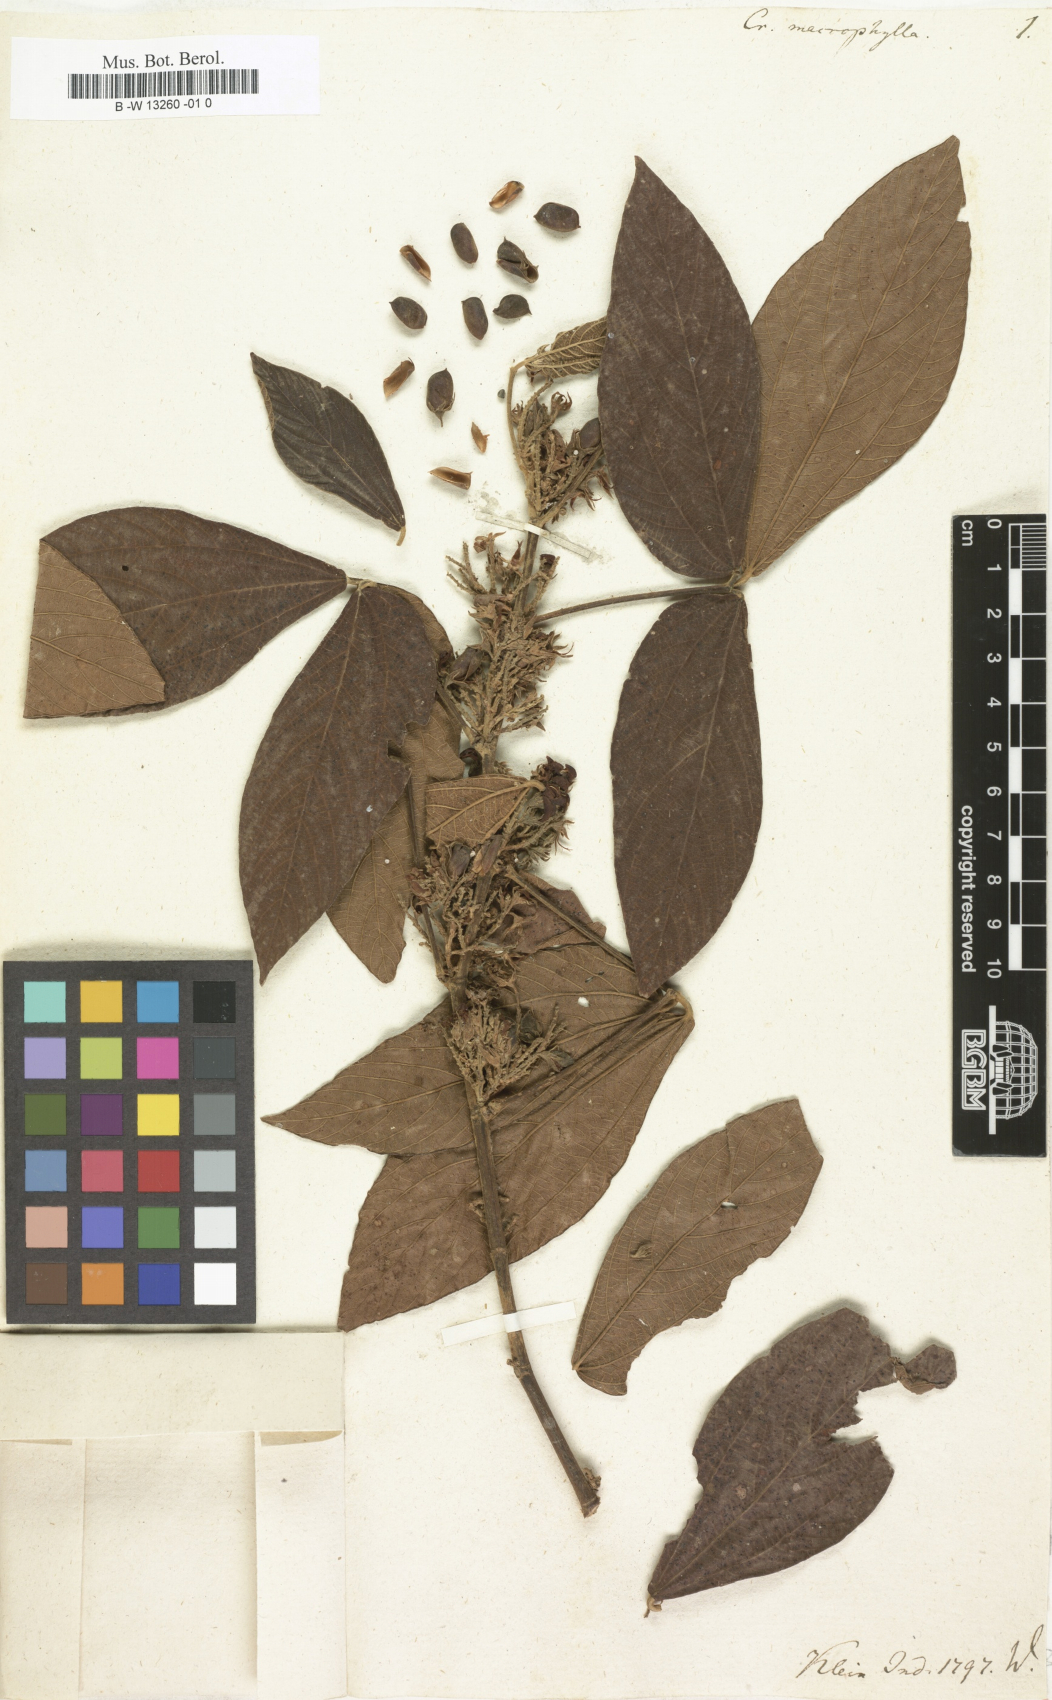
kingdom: Plantae
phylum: Tracheophyta
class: Magnoliopsida
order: Fabales
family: Fabaceae
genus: Flemingia
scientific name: Flemingia macrophylla
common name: Flemingia
